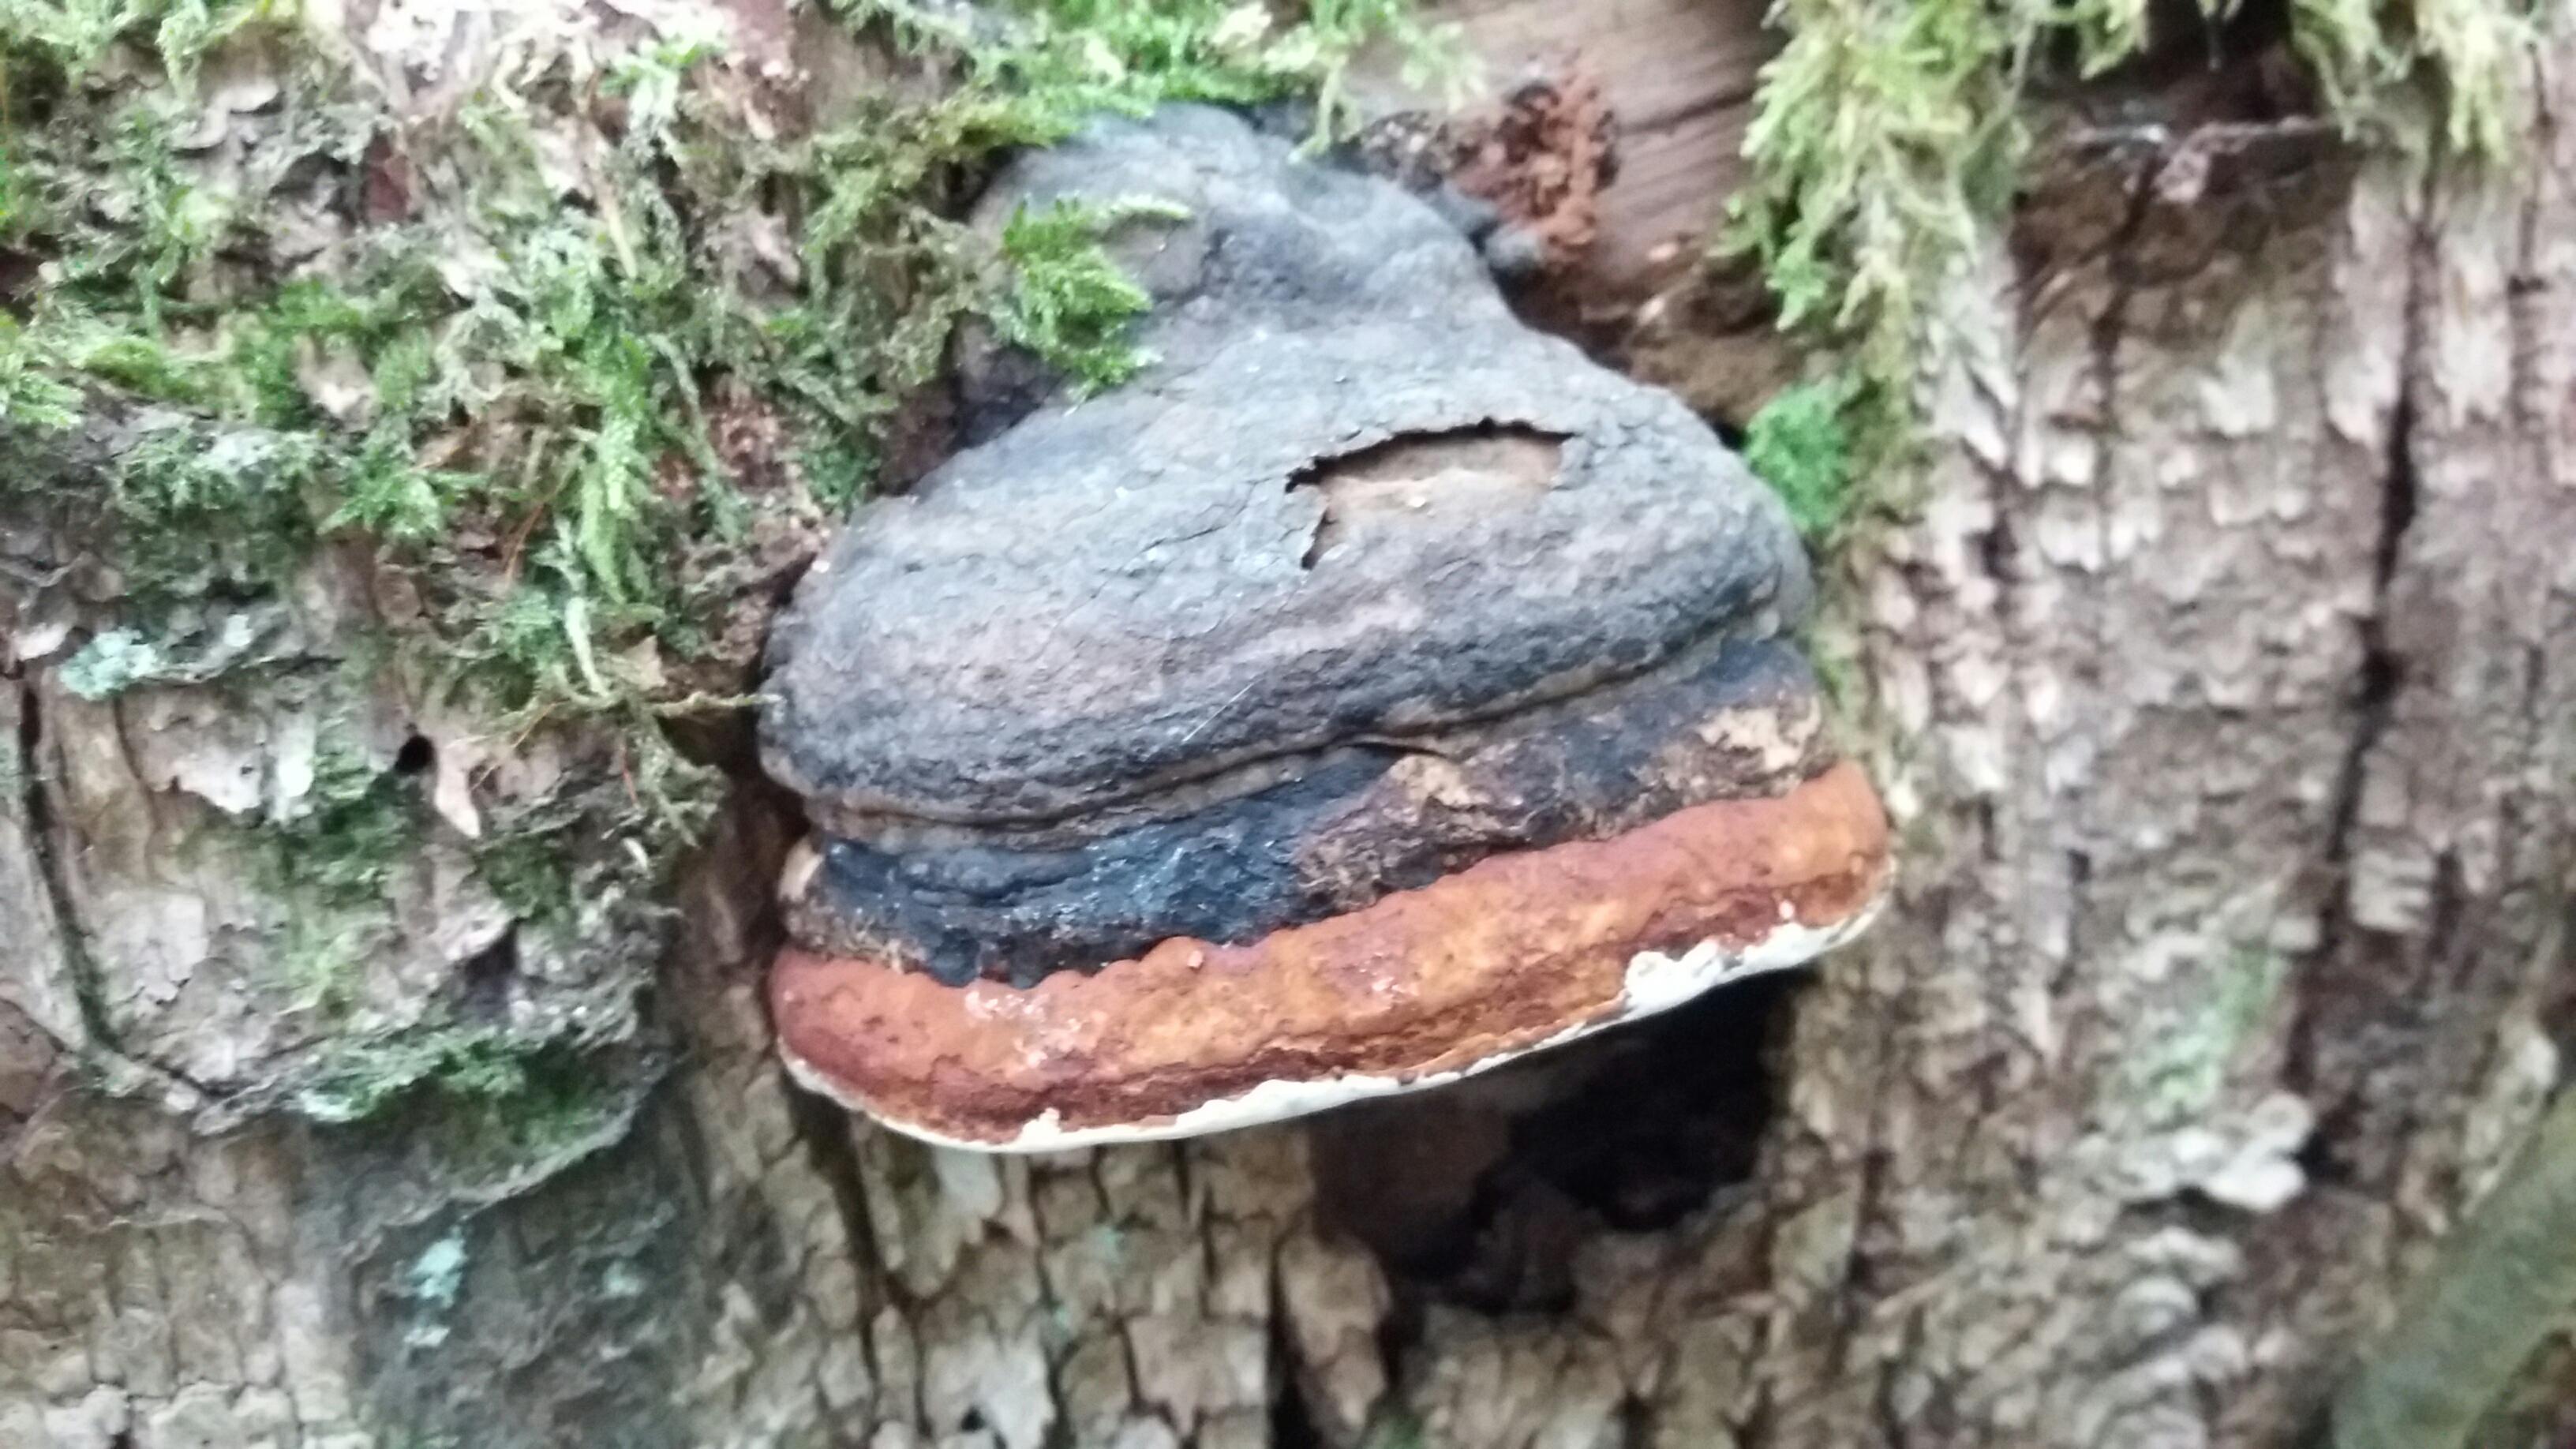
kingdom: Fungi
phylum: Basidiomycota
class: Agaricomycetes
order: Polyporales
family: Fomitopsidaceae
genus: Fomitopsis
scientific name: Fomitopsis pinicola
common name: randbæltet hovporesvamp
